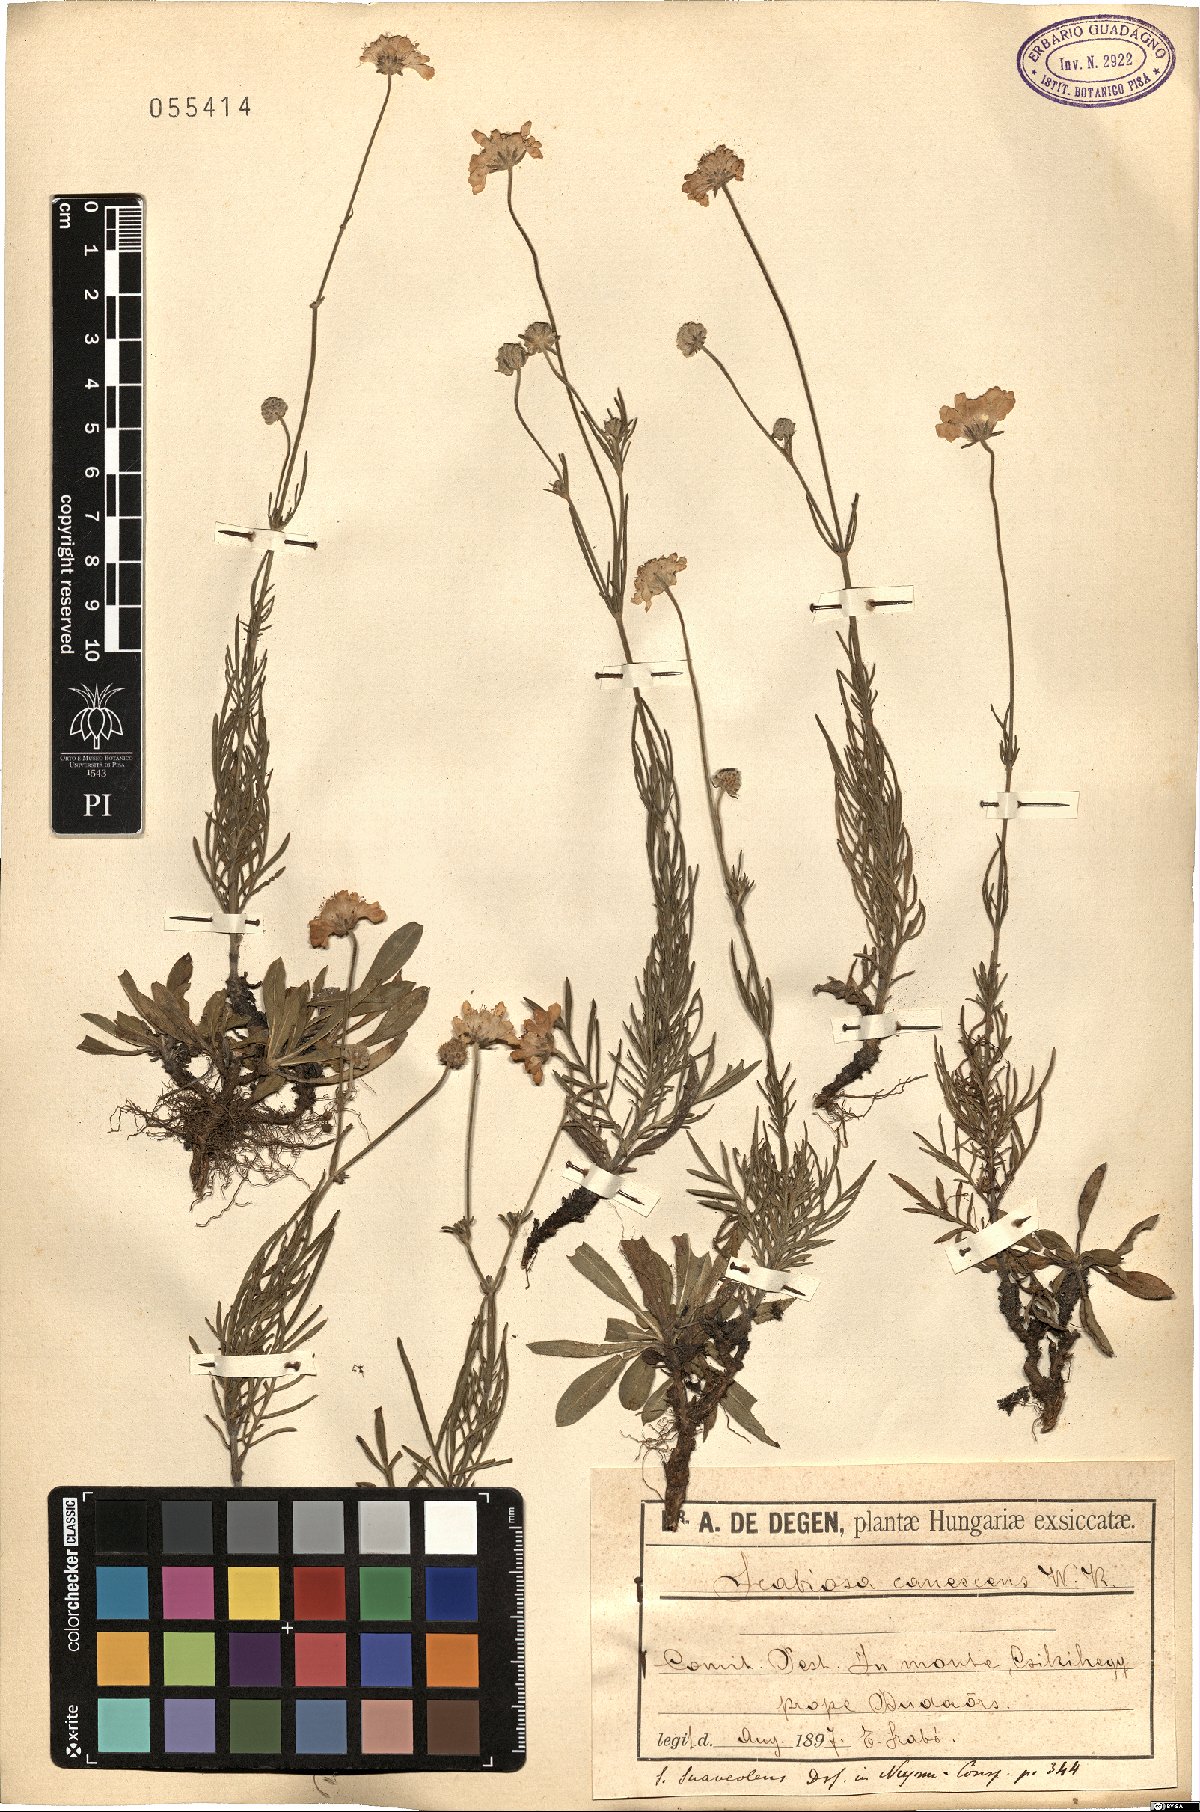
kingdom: Plantae
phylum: Tracheophyta
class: Magnoliopsida
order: Dipsacales
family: Caprifoliaceae
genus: Scabiosa
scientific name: Scabiosa canescens
